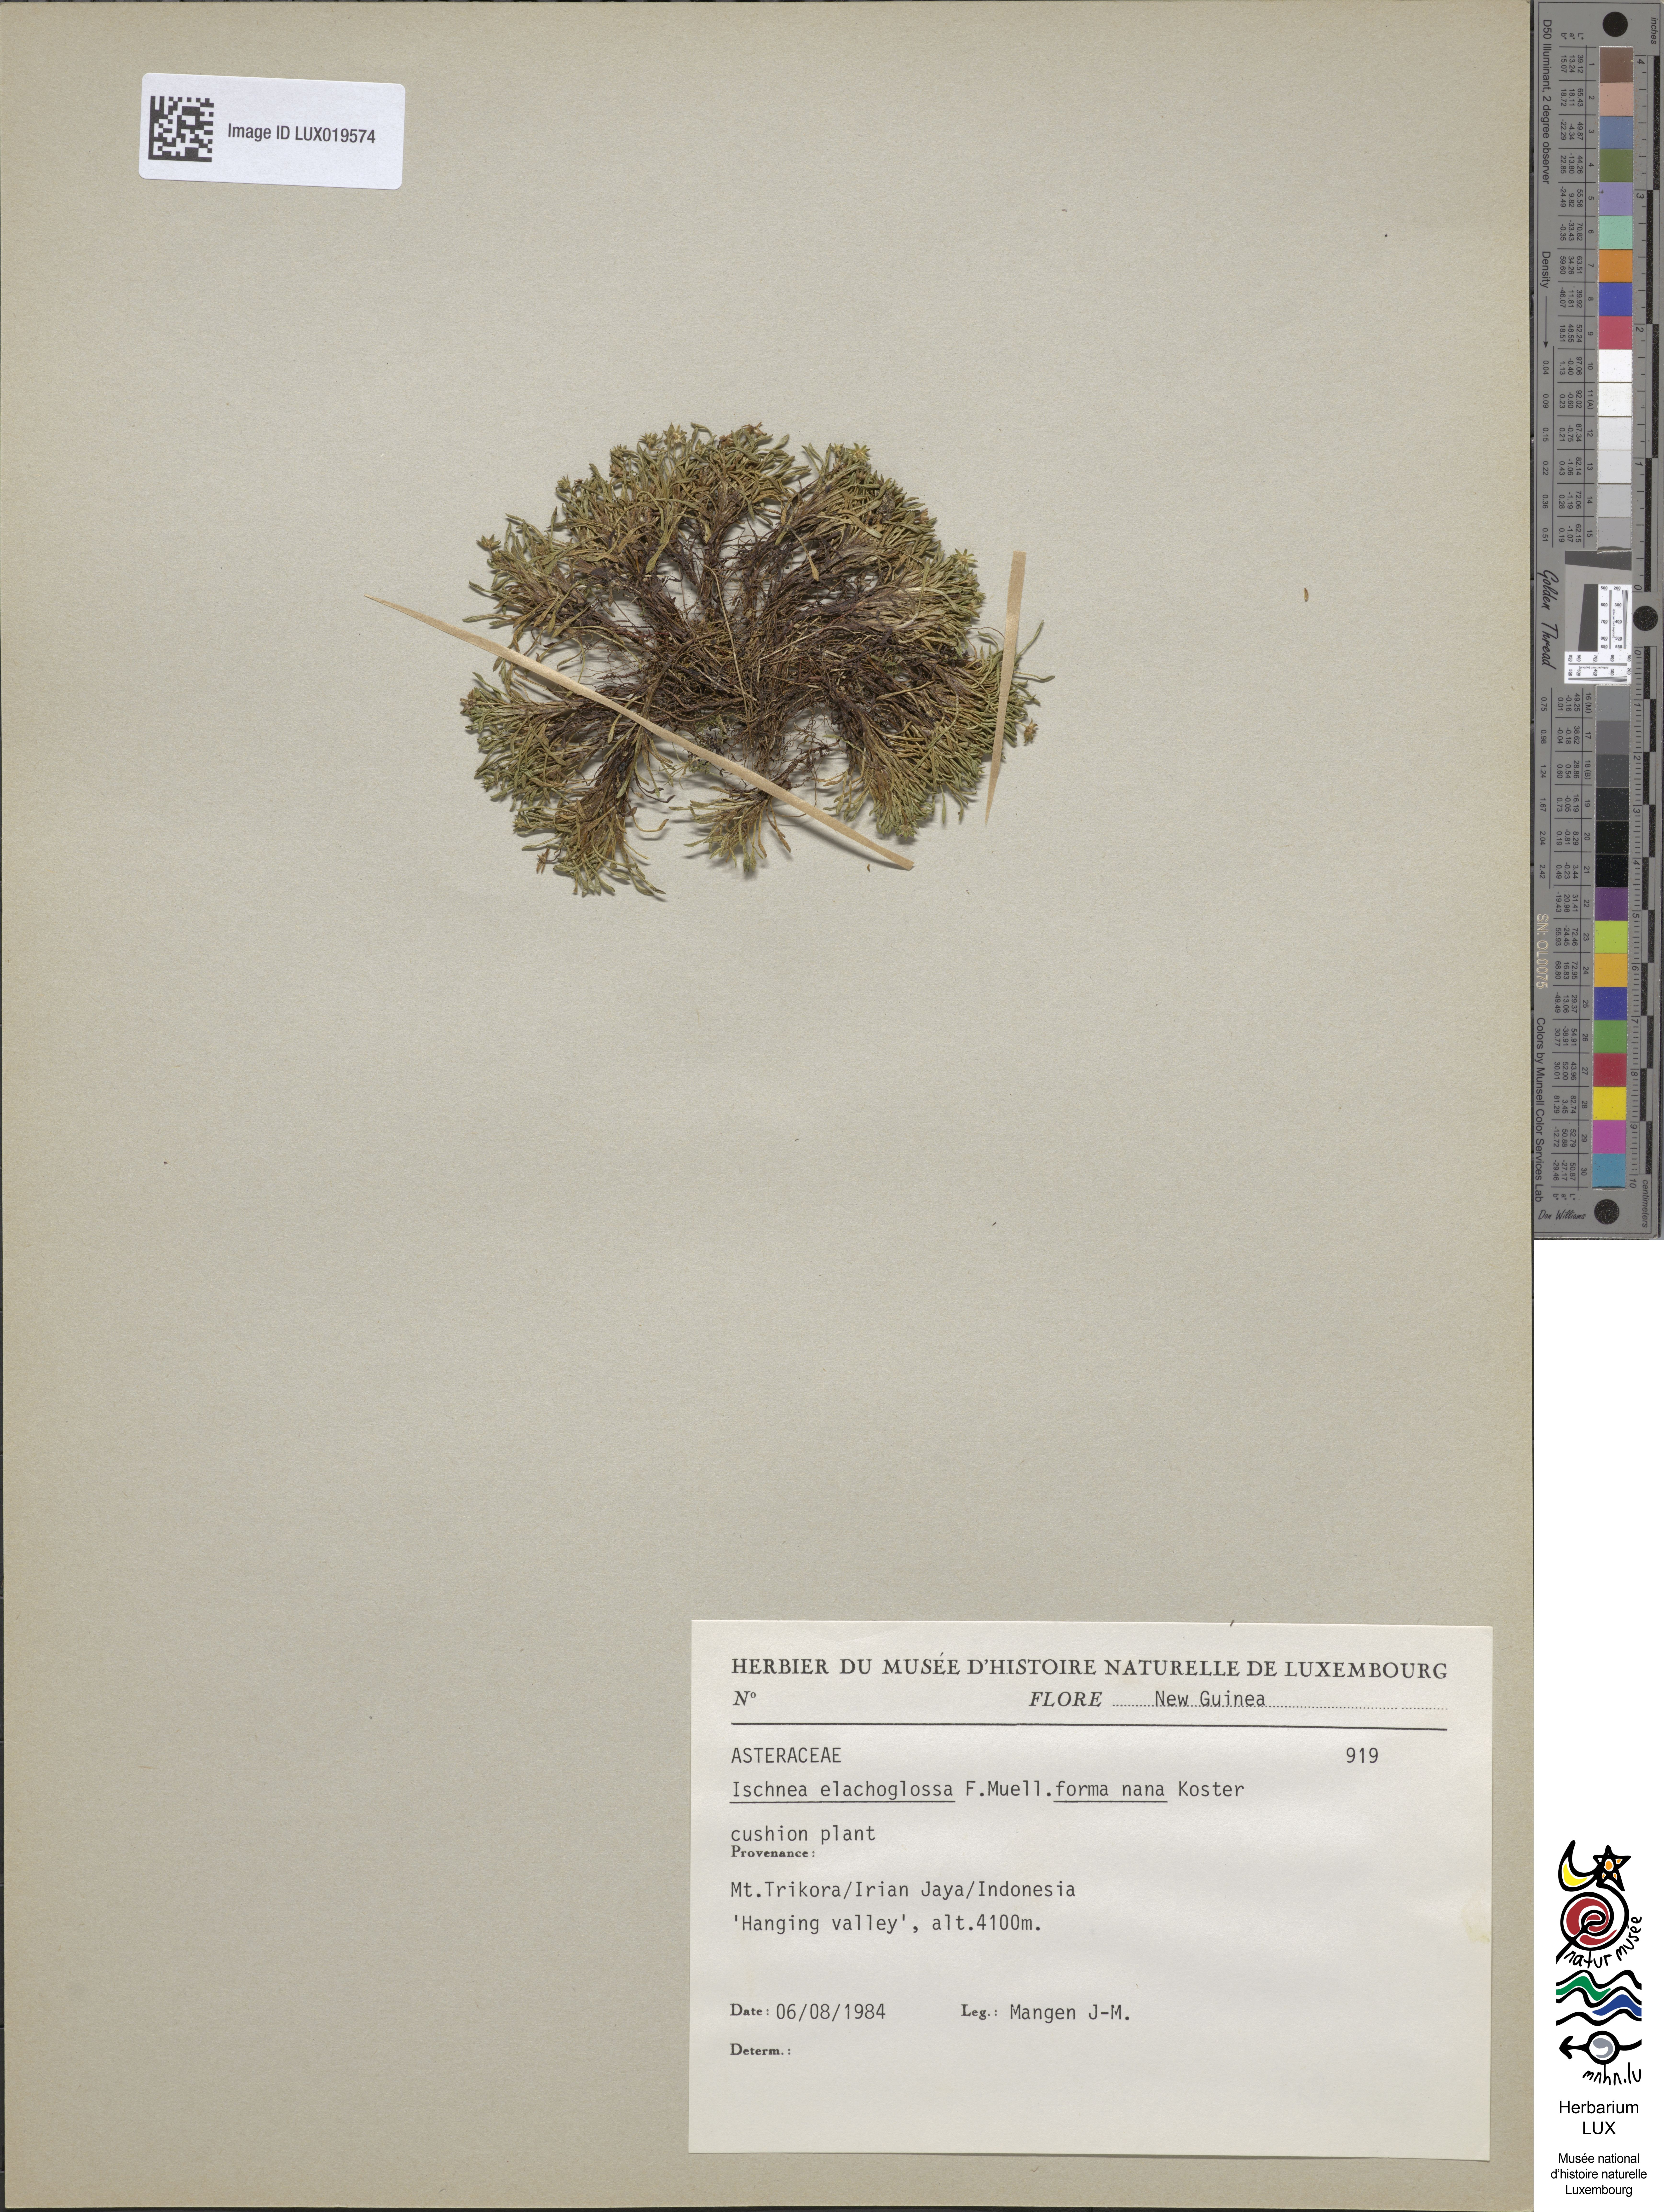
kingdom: Plantae
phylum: Tracheophyta
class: Magnoliopsida
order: Asterales
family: Asteraceae
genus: Ischnea
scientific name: Ischnea elachoglossa
